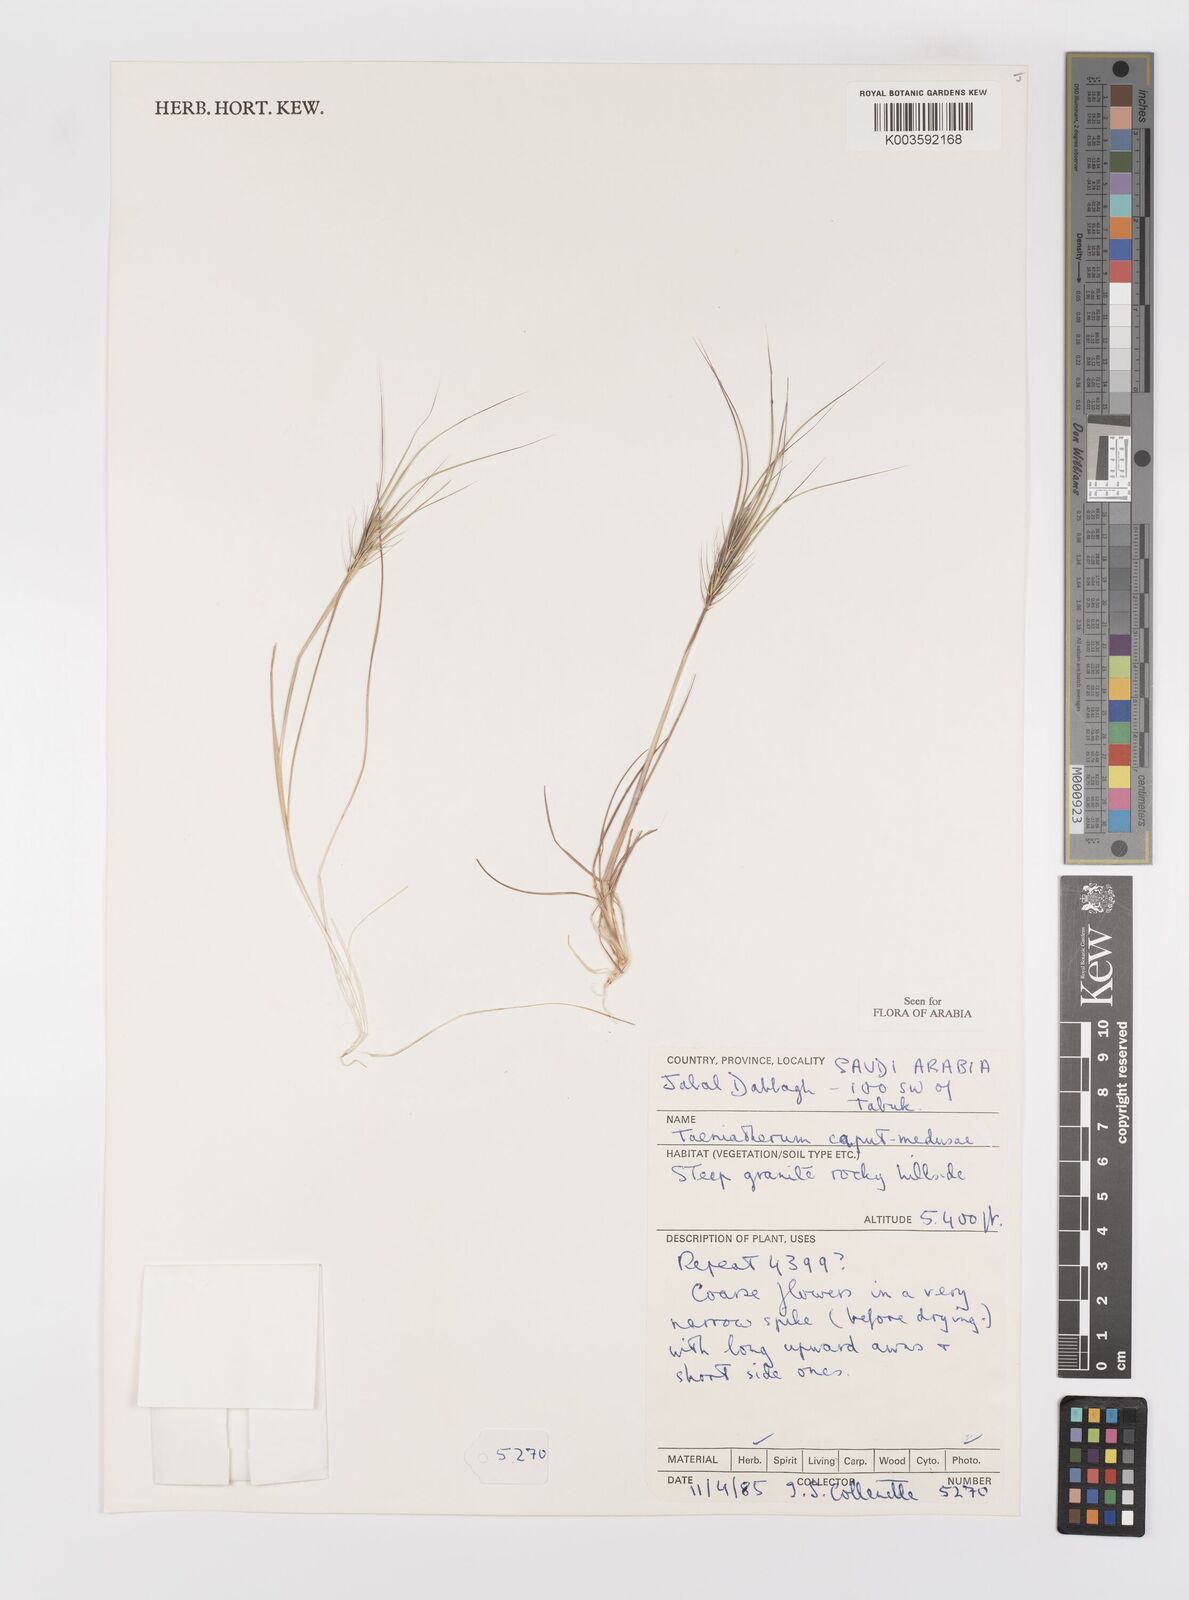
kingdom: Plantae
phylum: Tracheophyta
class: Liliopsida
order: Poales
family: Poaceae
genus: Taeniatherum
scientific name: Taeniatherum caput-medusae
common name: Medusahead
